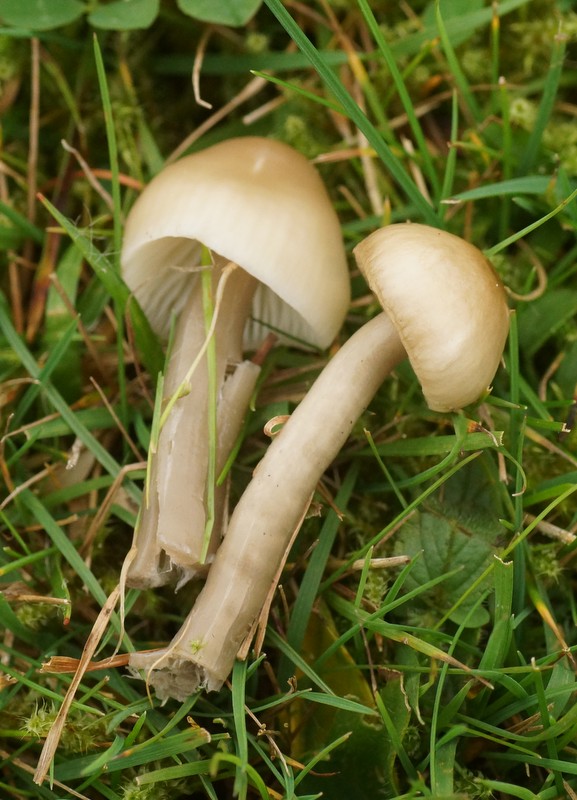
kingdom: Fungi
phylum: Basidiomycota
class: Agaricomycetes
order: Agaricales
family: Hygrophoraceae
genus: Gliophorus
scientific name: Gliophorus irrigatus
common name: slimet vokshat
